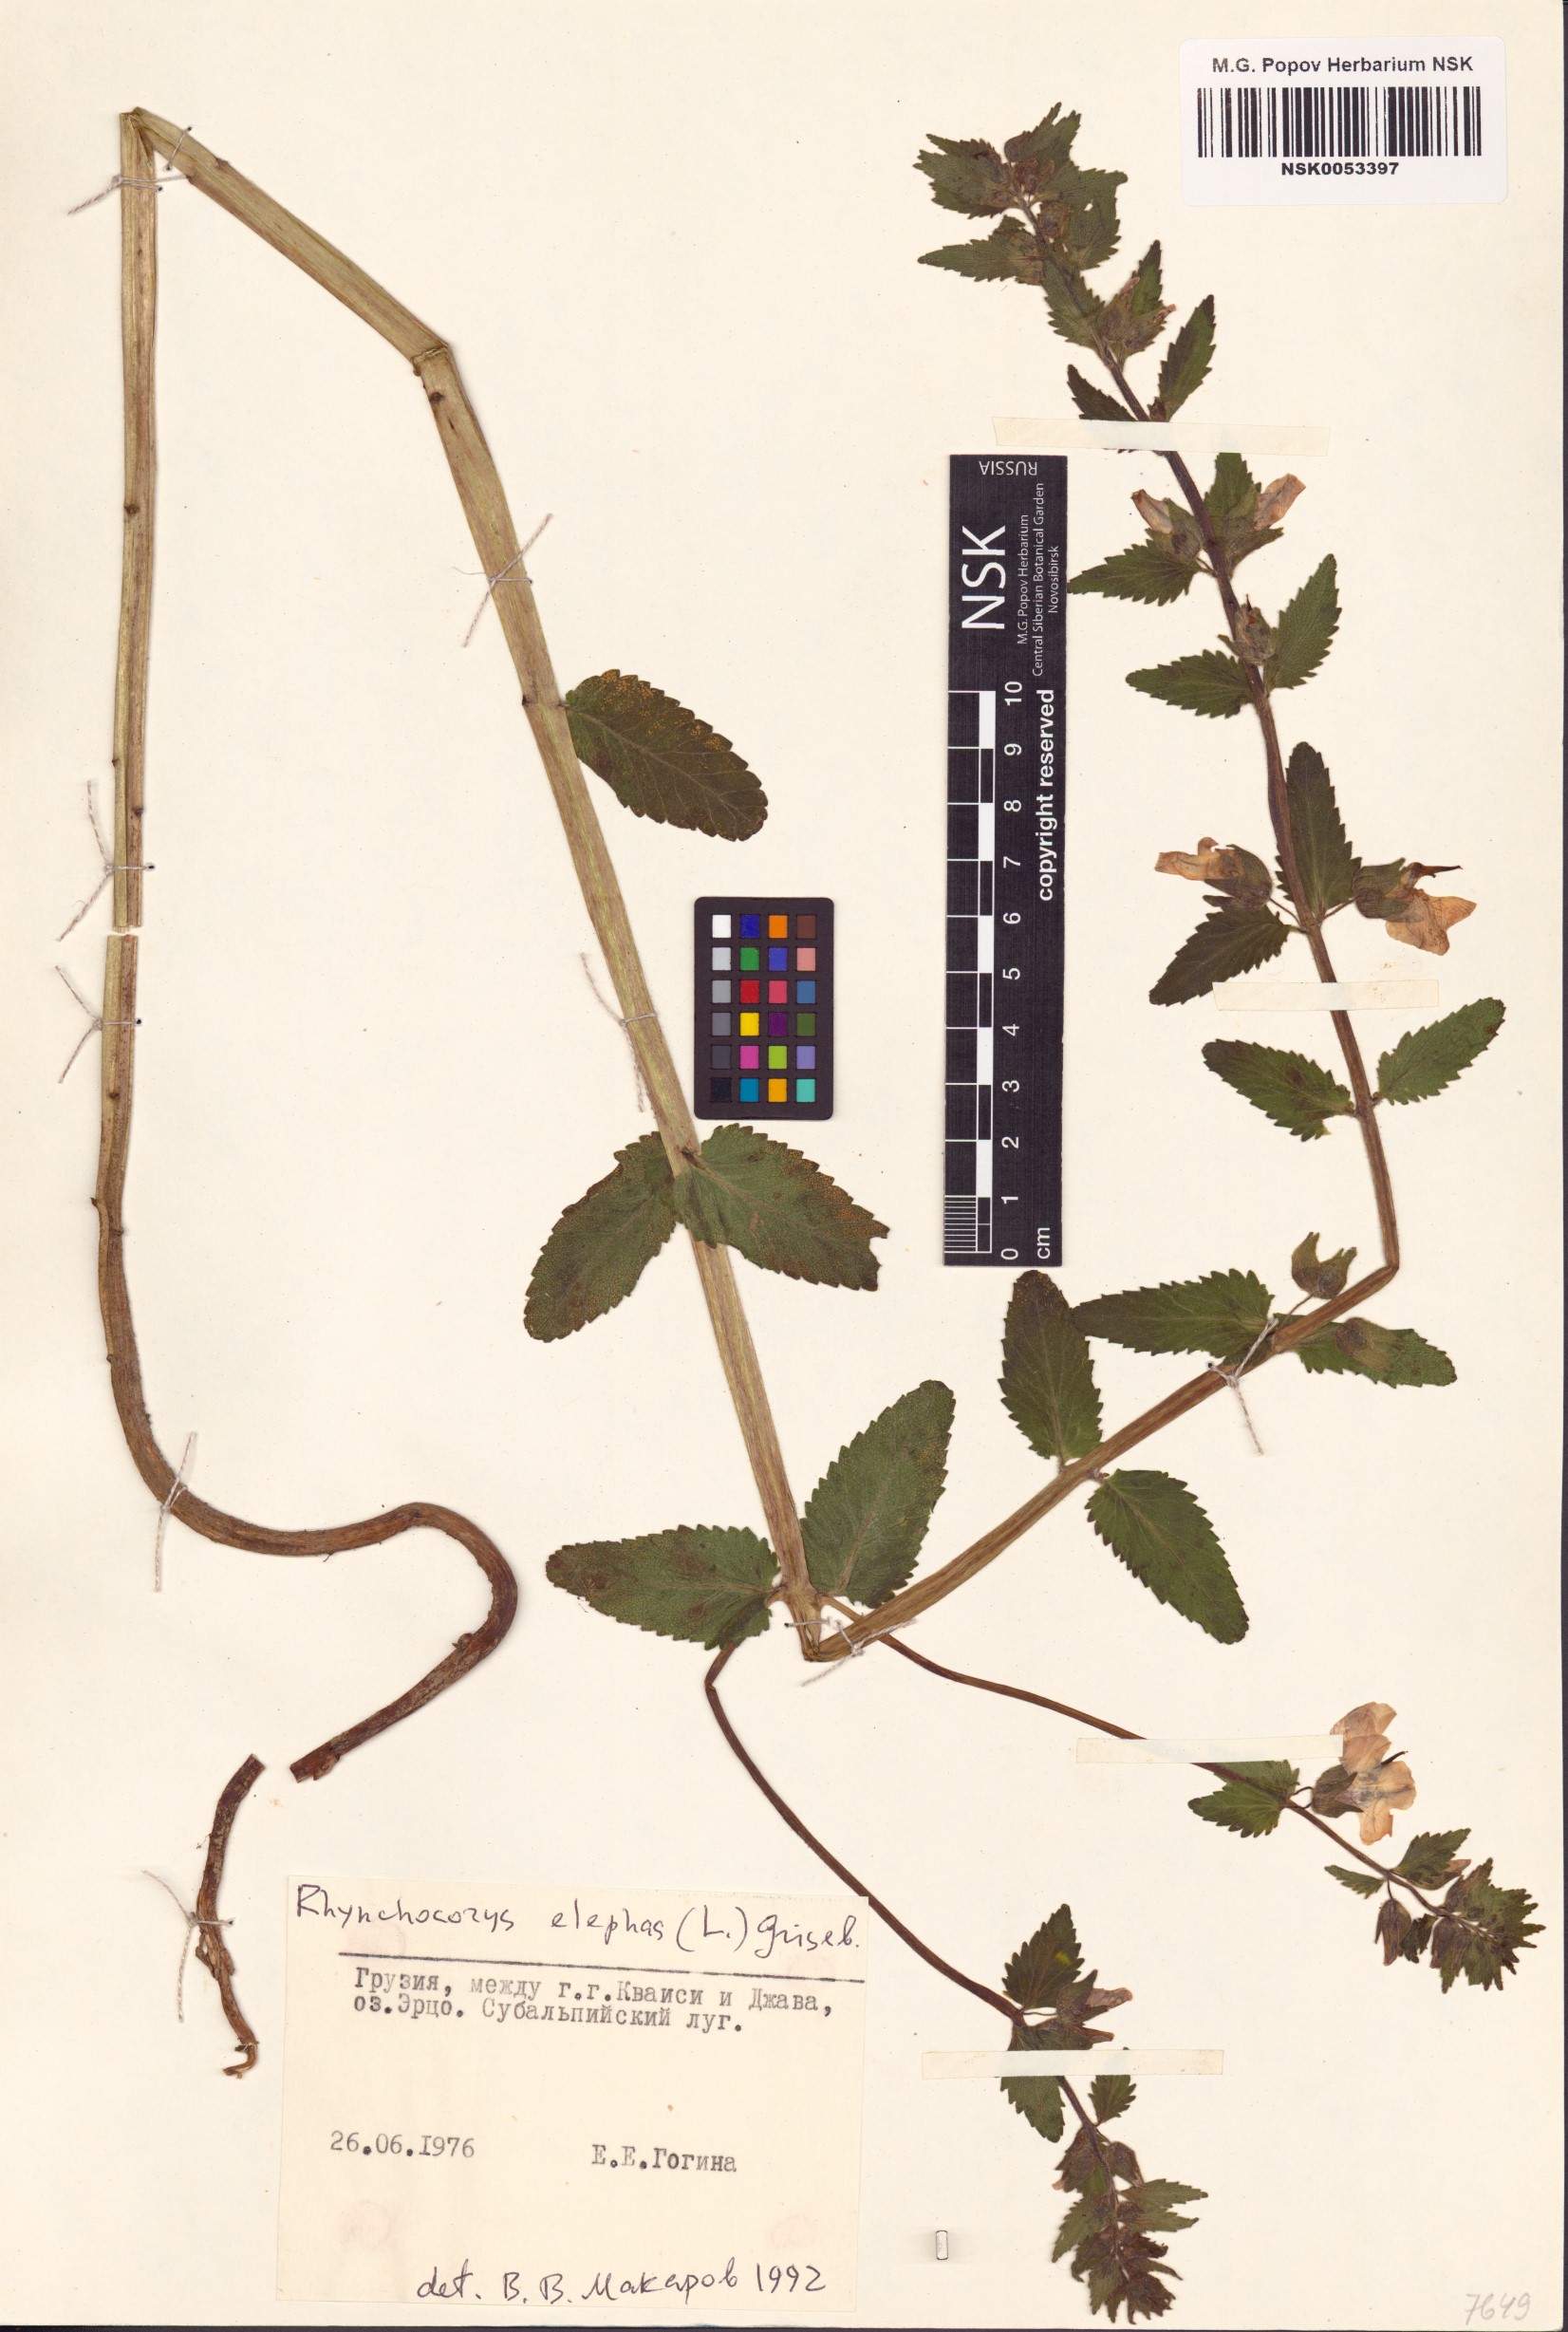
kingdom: Plantae
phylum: Tracheophyta
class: Magnoliopsida
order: Lamiales
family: Orobanchaceae
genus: Rhynchocorys
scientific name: Rhynchocorys elephas
